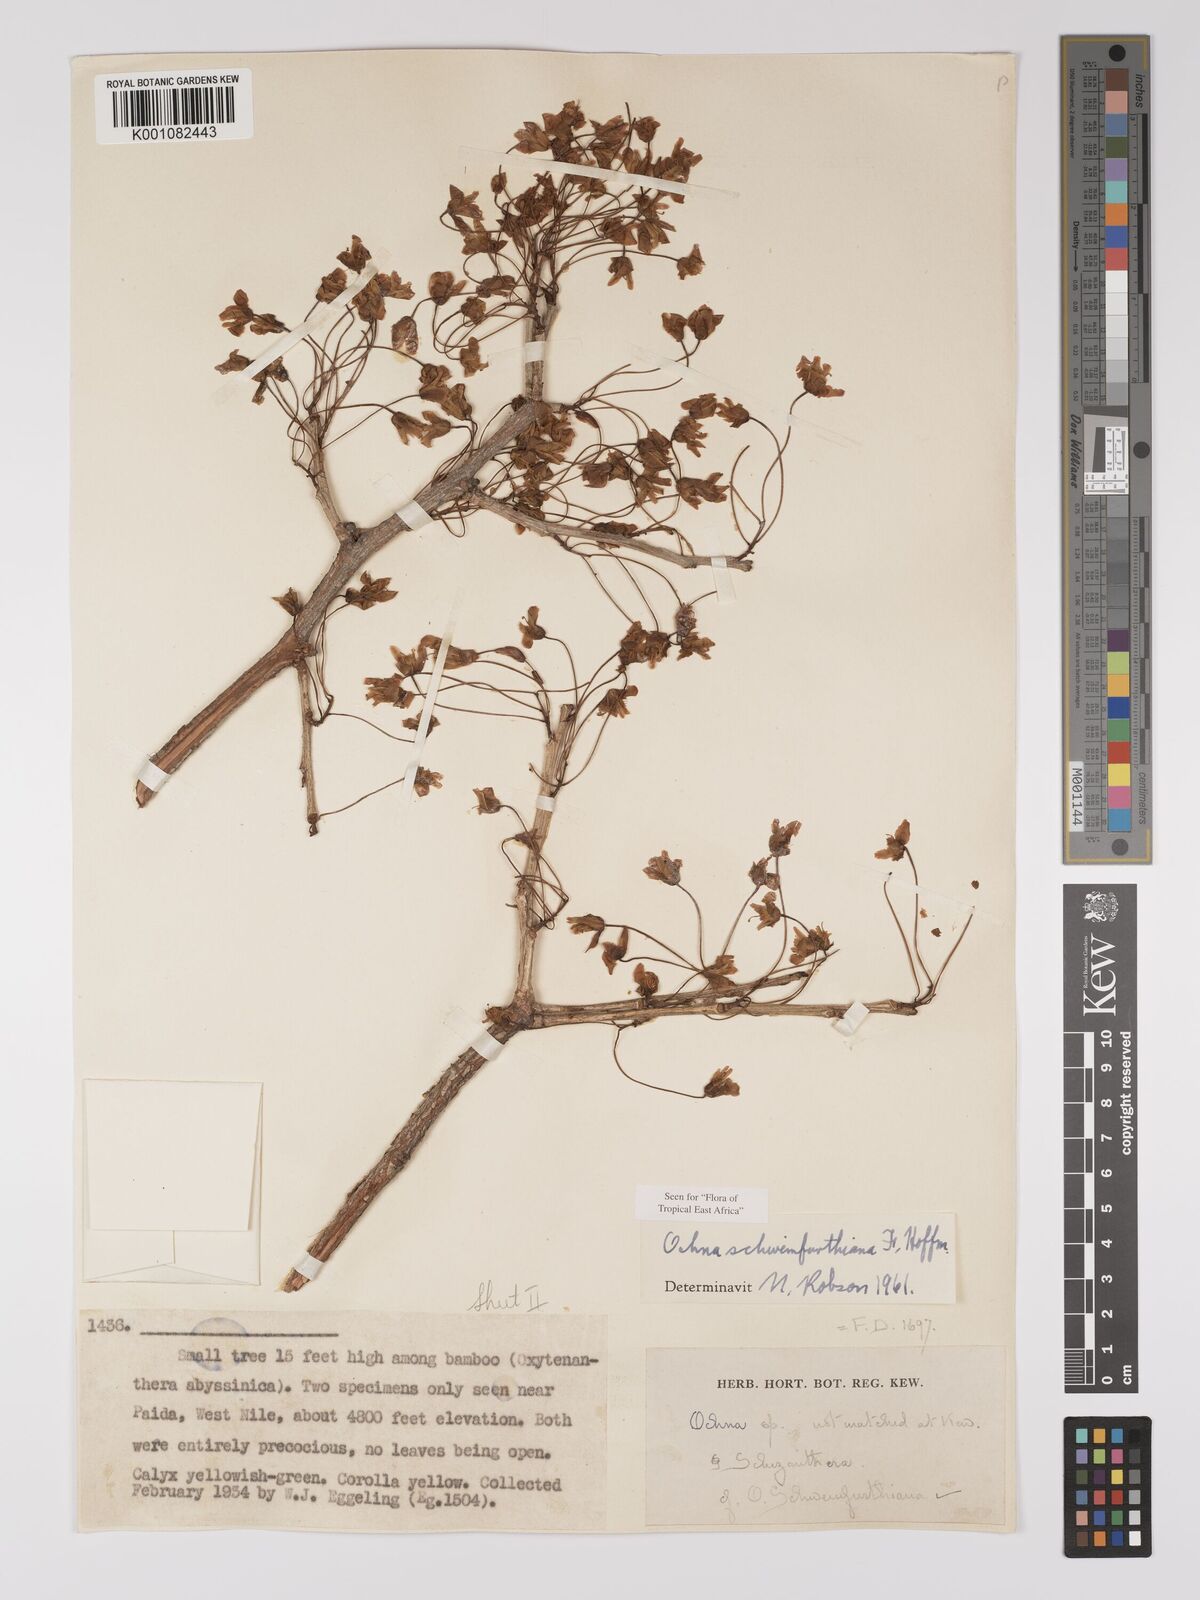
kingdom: Plantae
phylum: Tracheophyta
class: Magnoliopsida
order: Malpighiales
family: Ochnaceae
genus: Ochna
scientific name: Ochna schweinfurthiana
